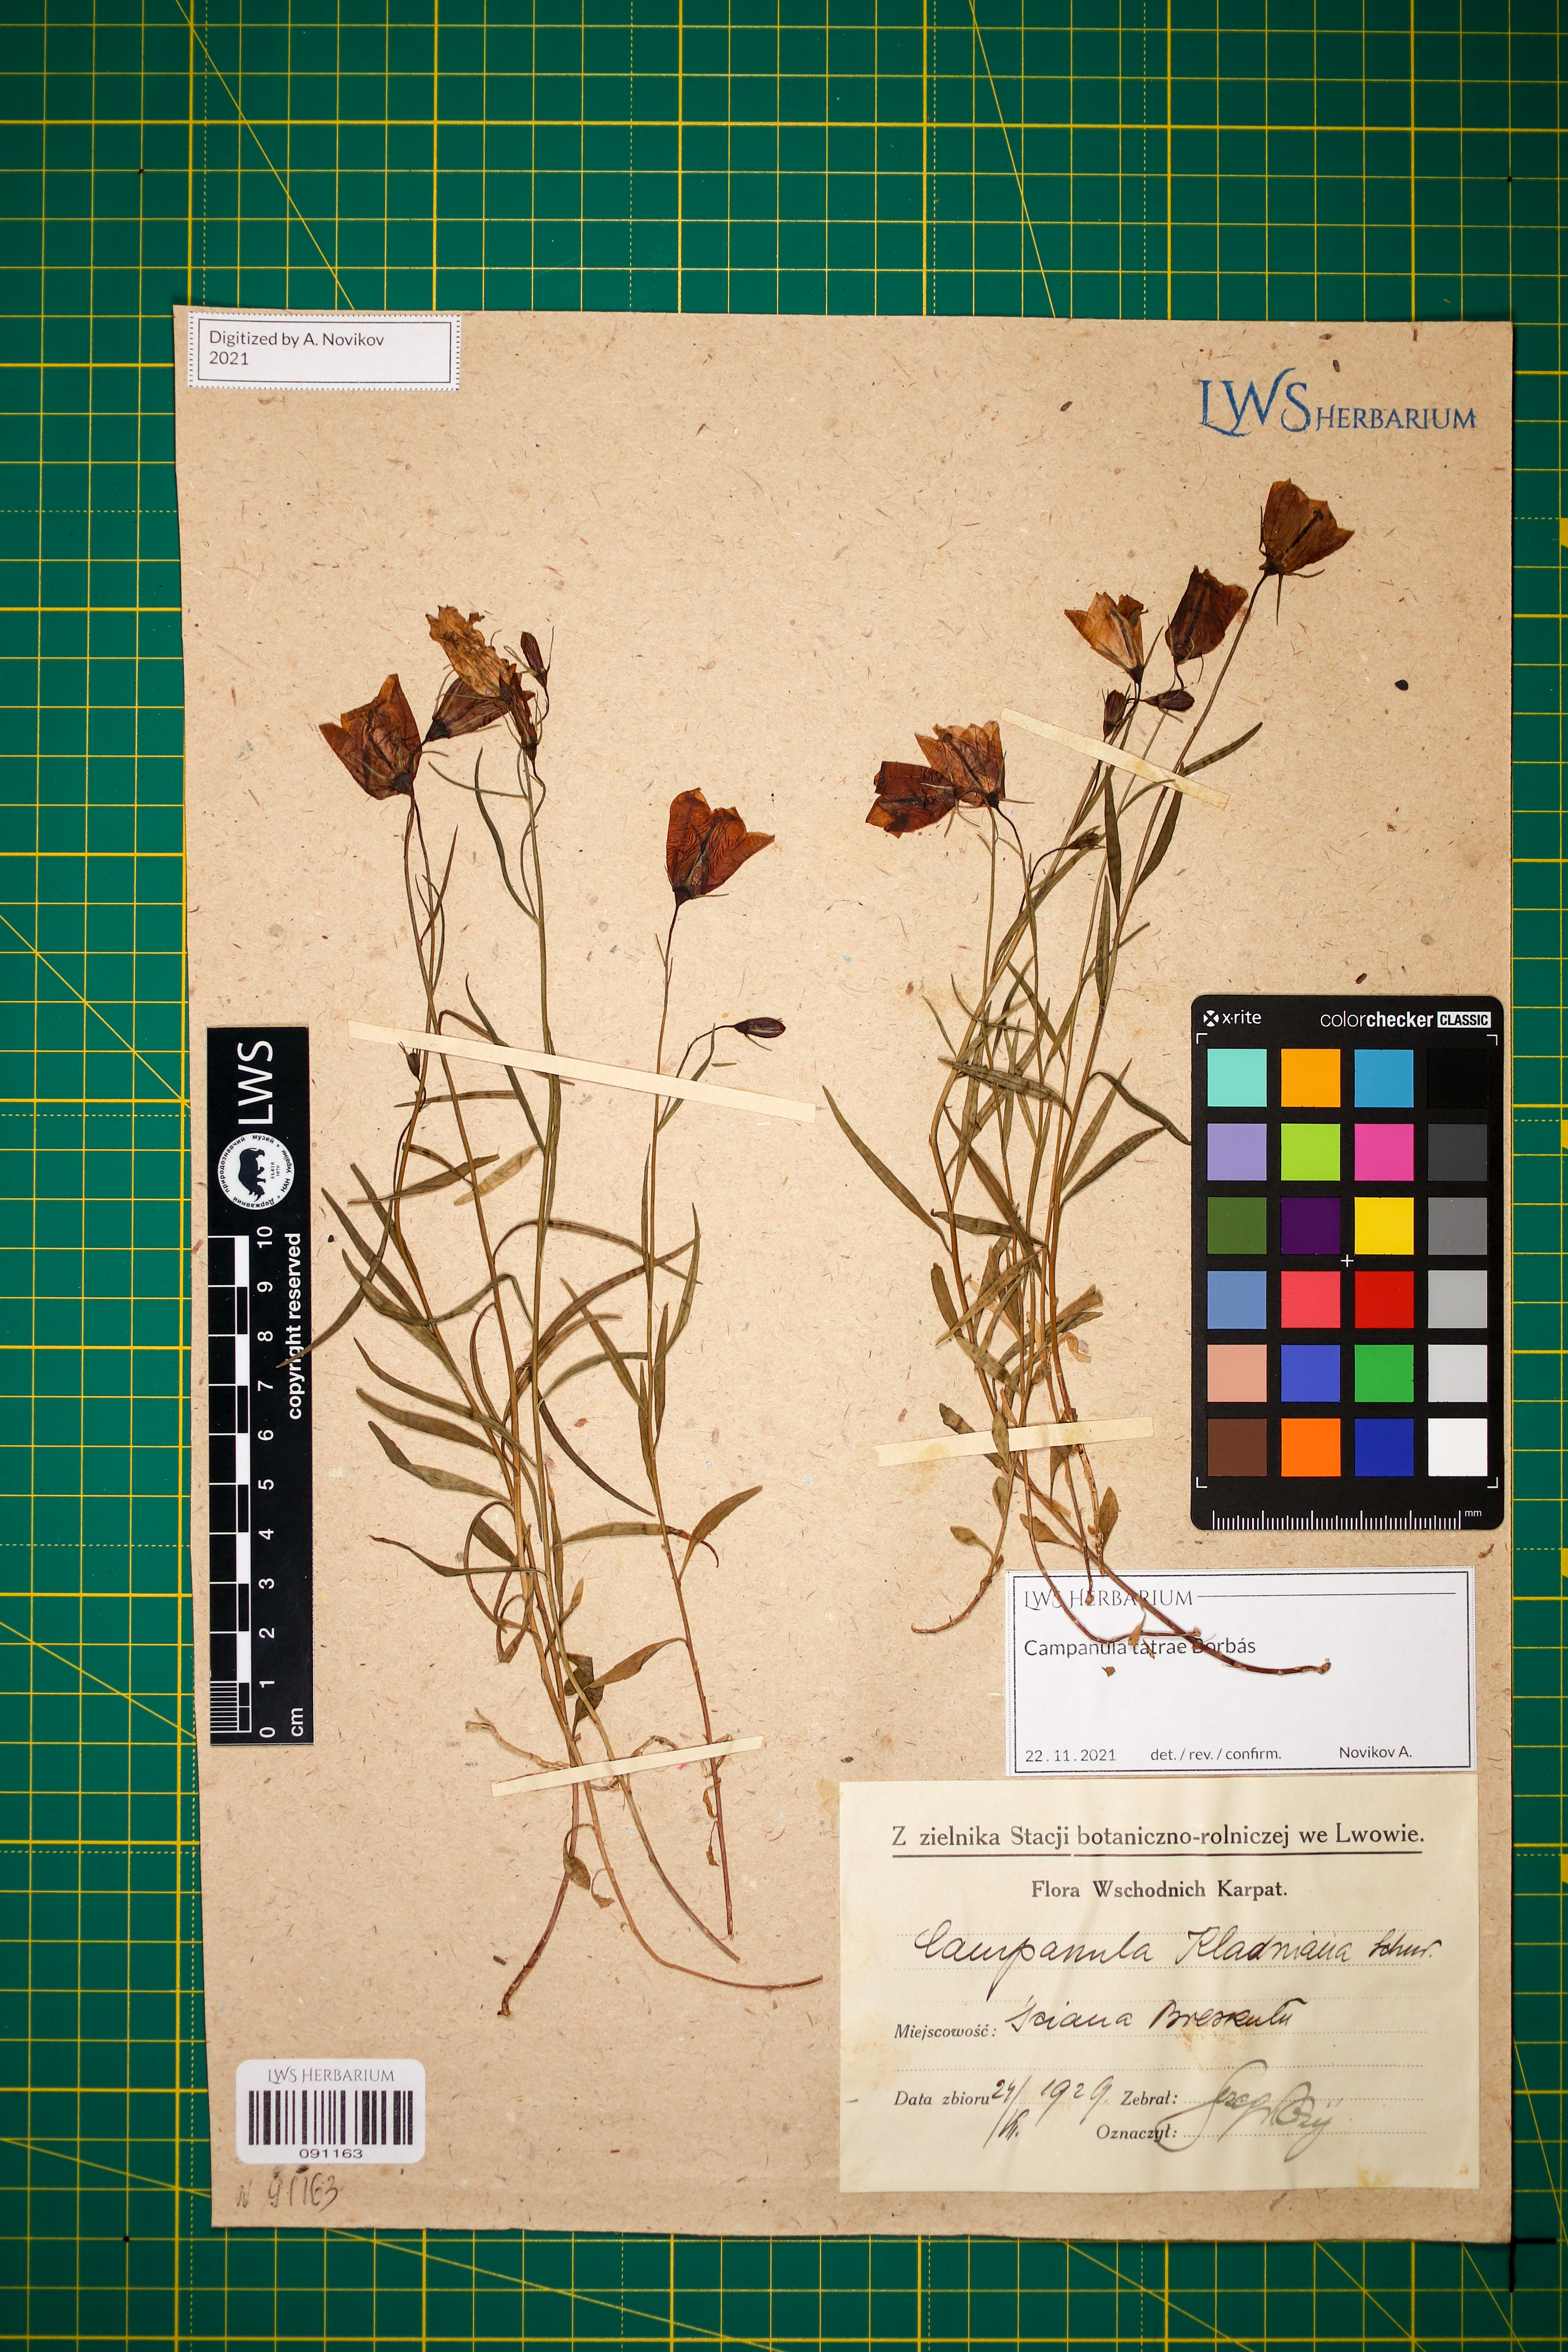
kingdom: Plantae
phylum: Tracheophyta
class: Magnoliopsida
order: Asterales
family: Campanulaceae
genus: Campanula
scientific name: Campanula kladniana
